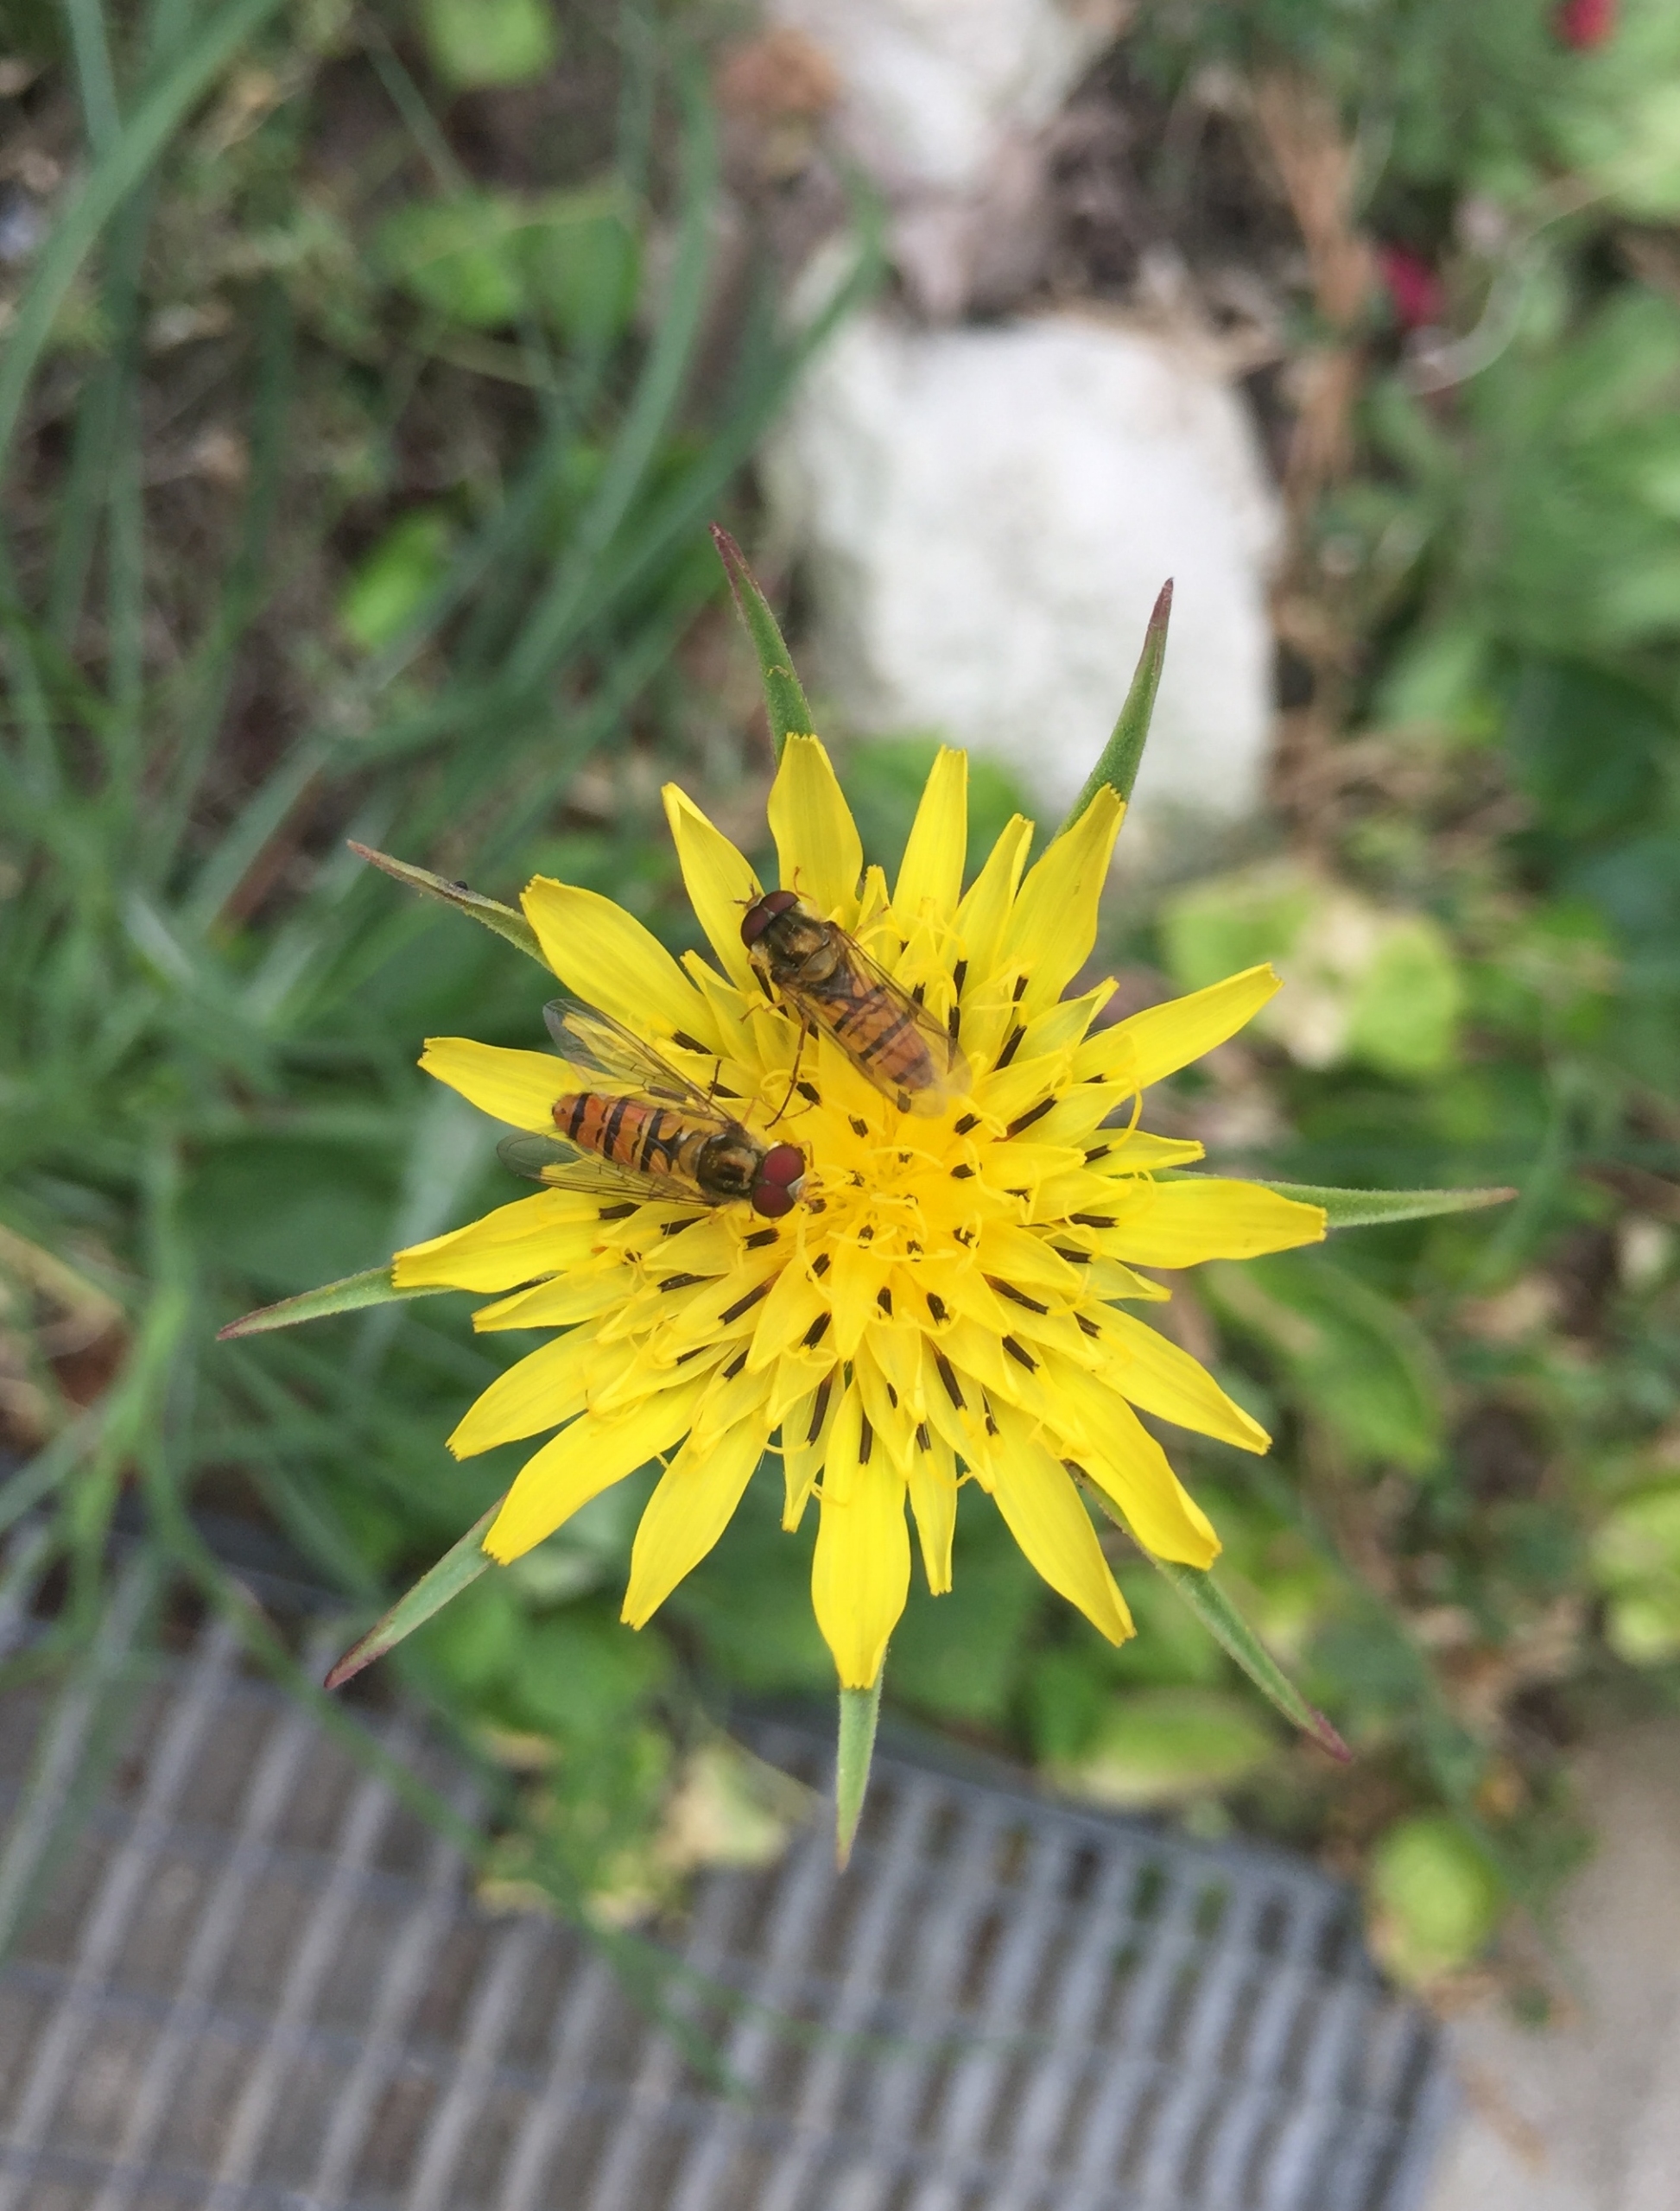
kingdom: Animalia
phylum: Arthropoda
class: Insecta
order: Diptera
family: Syrphidae
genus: Episyrphus
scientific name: Episyrphus balteatus
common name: Dobbeltbåndet svirreflue
